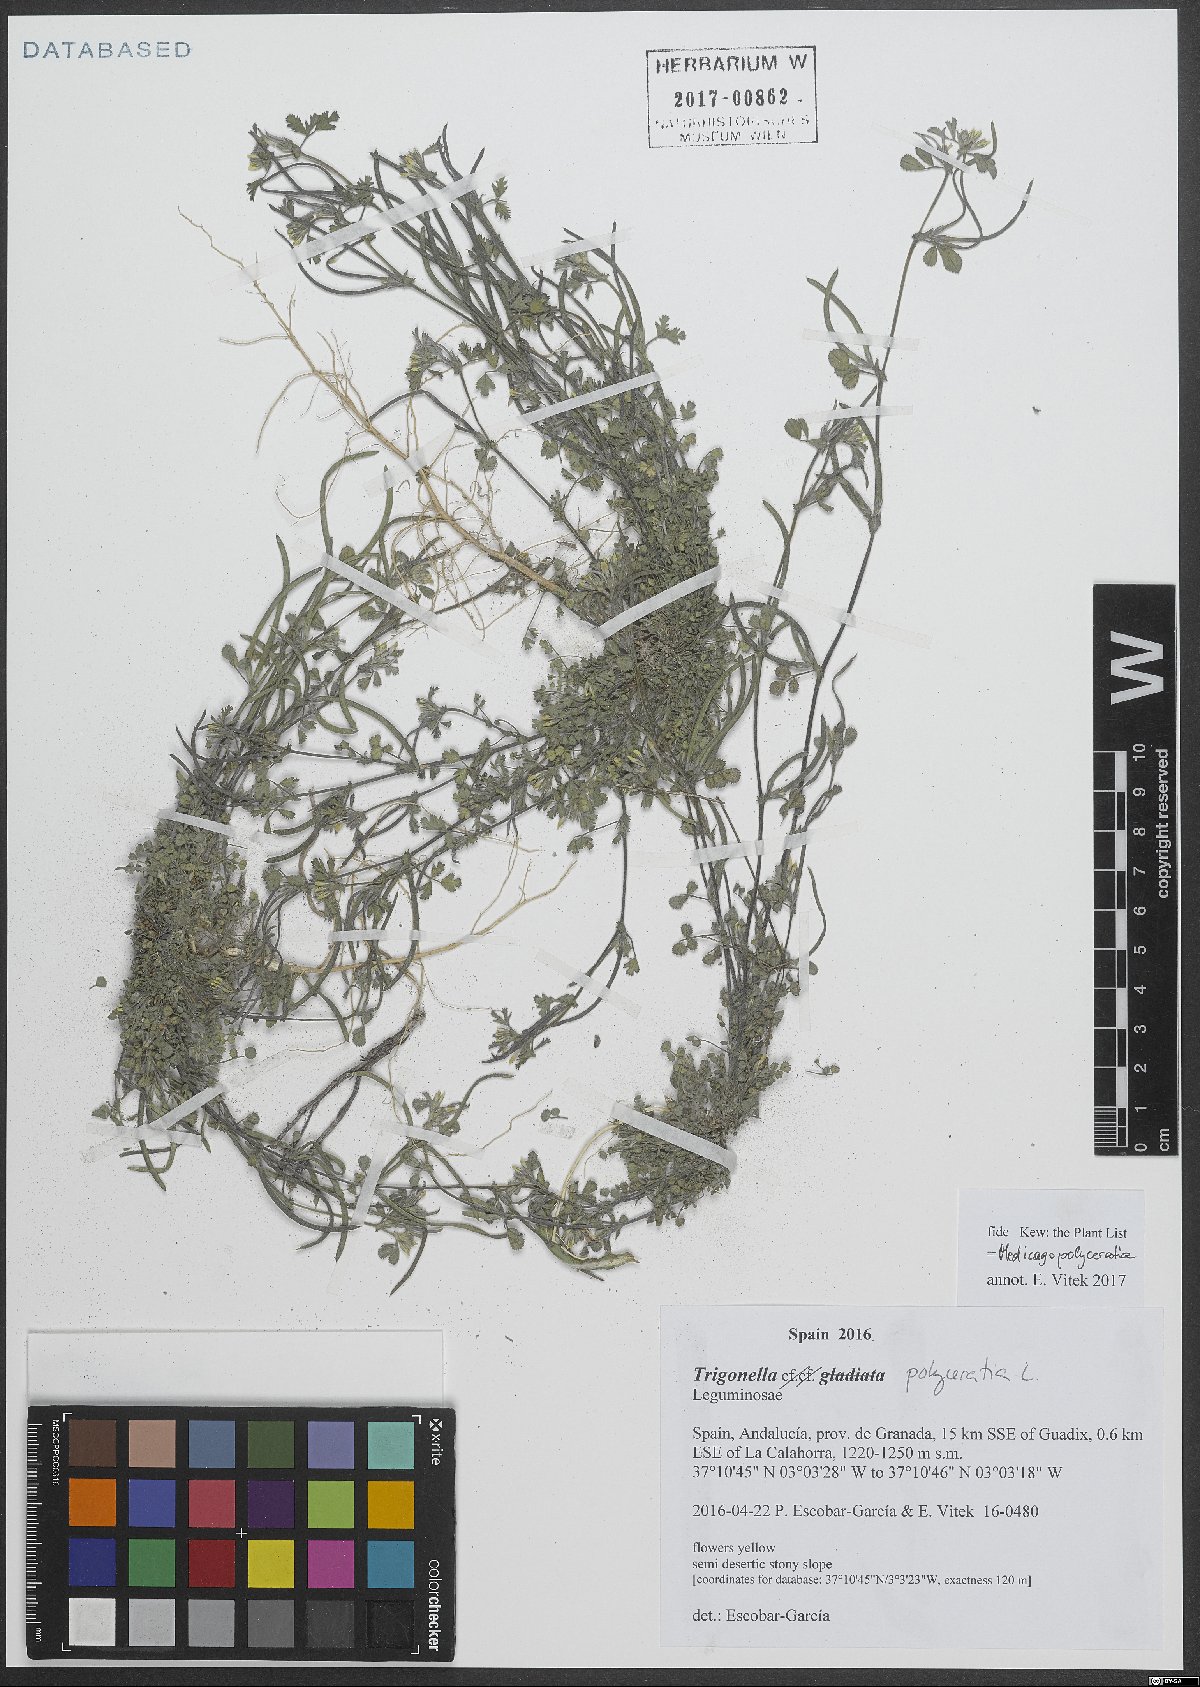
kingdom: Plantae
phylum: Tracheophyta
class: Magnoliopsida
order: Fabales
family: Fabaceae
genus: Medicago
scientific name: Medicago polyceratia
